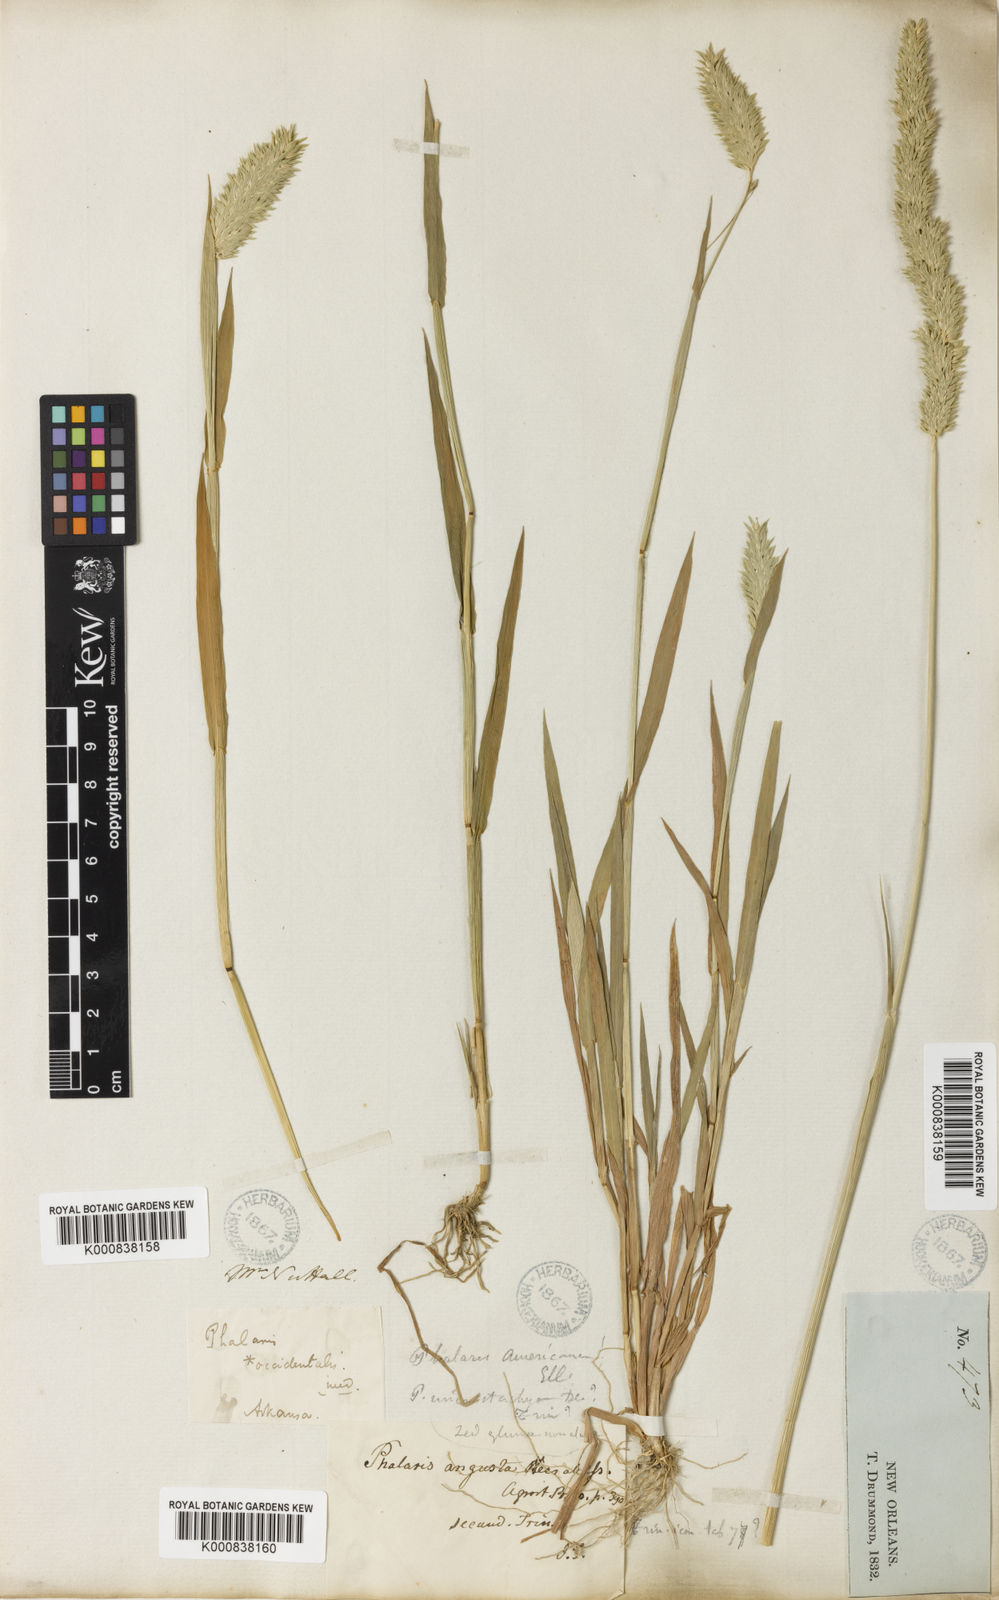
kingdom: Plantae
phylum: Tracheophyta
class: Liliopsida
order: Poales
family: Poaceae
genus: Phalaris
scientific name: Phalaris caroliniana
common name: May grass
